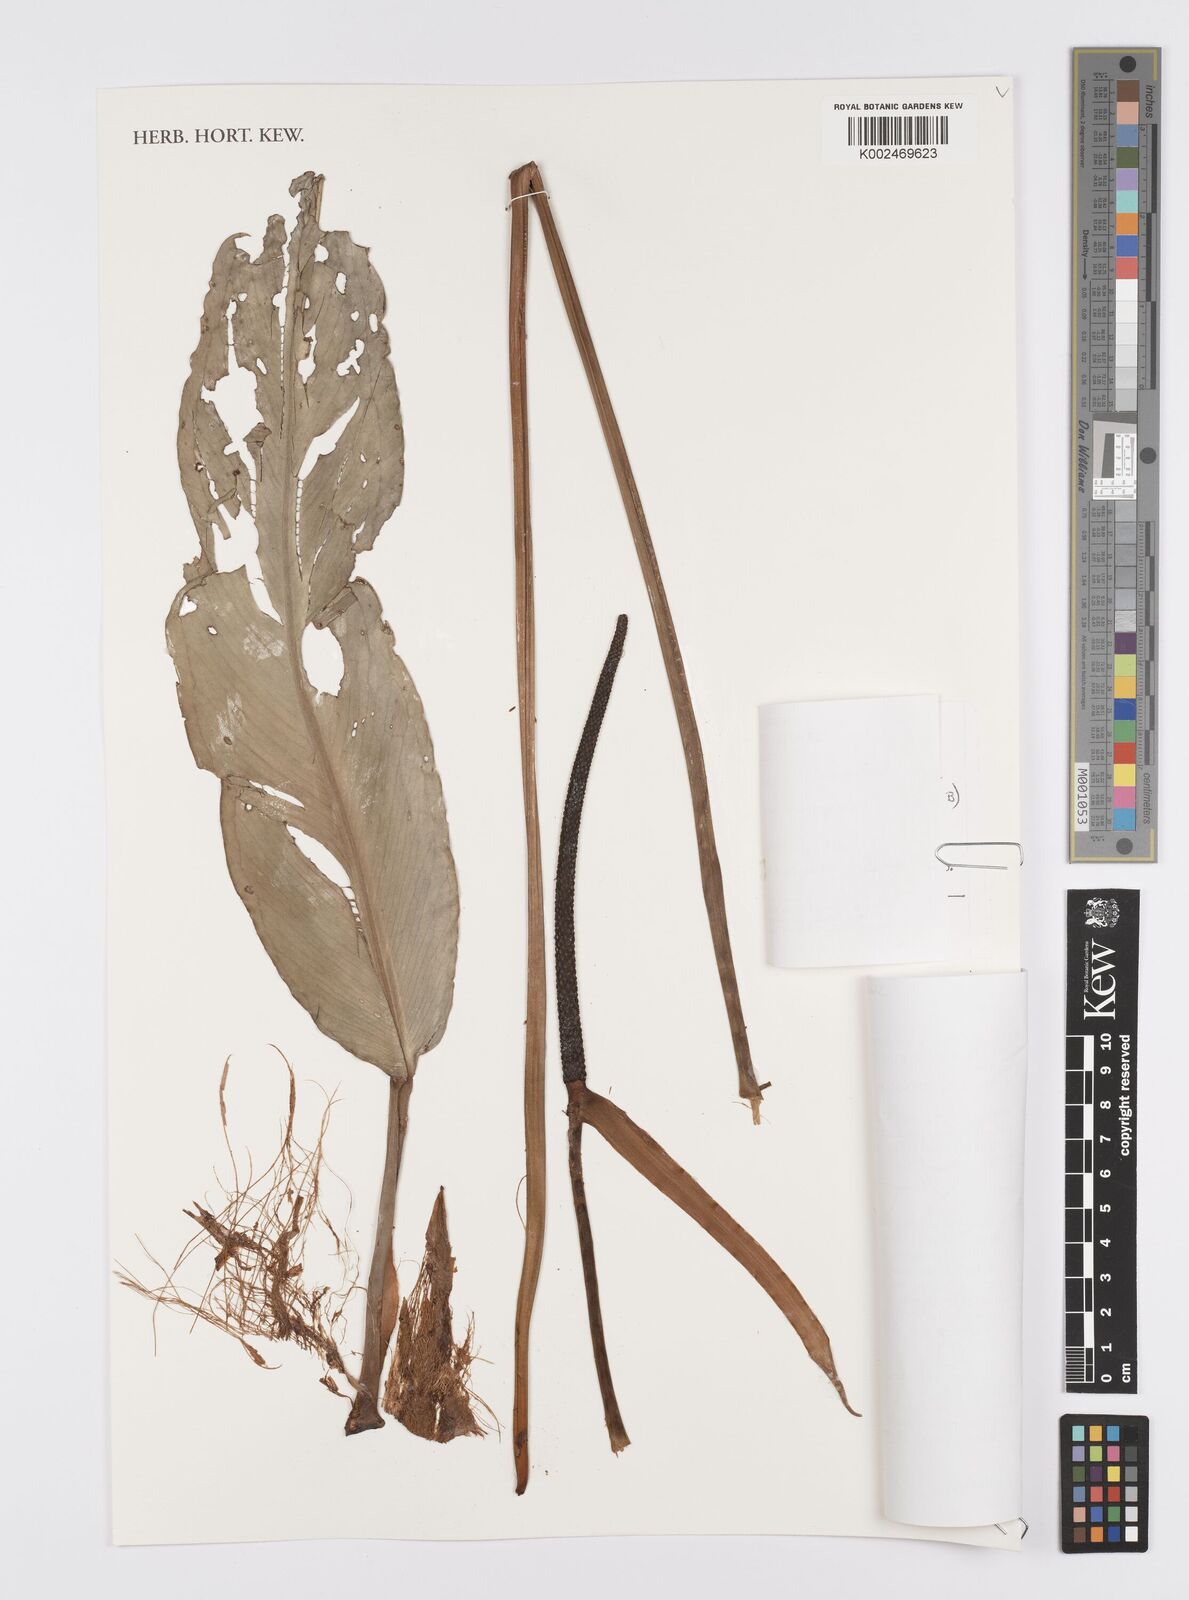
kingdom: Plantae
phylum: Tracheophyta
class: Liliopsida
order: Alismatales
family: Araceae
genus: Anthurium
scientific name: Anthurium petrophilum
